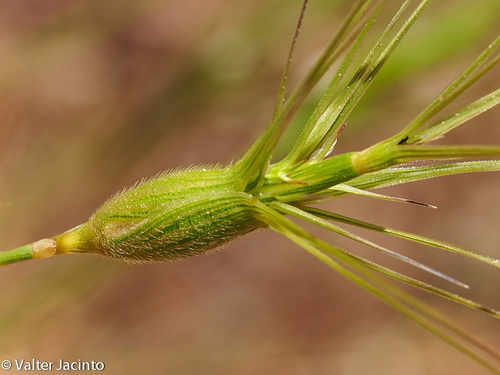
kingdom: Plantae
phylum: Tracheophyta
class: Liliopsida
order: Poales
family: Poaceae
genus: Aegilops
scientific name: Aegilops geniculata
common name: Ovate goat grass
